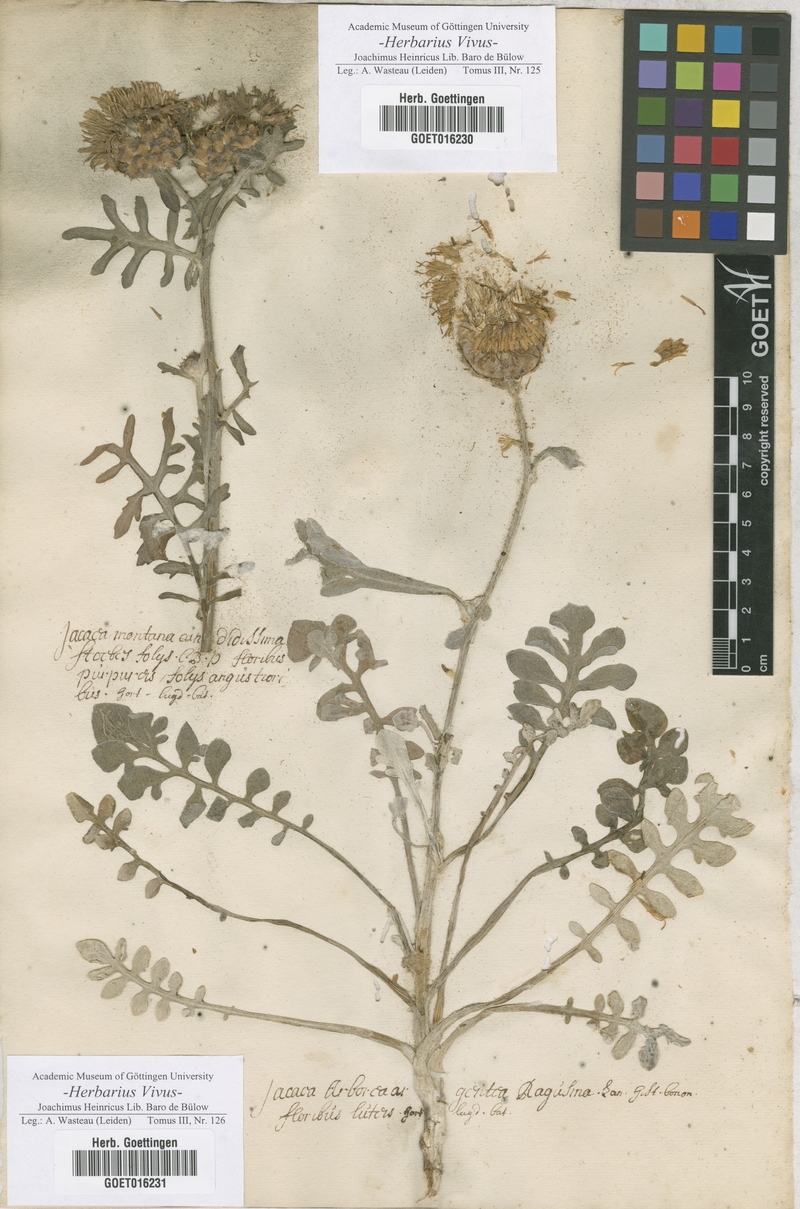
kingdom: Plantae
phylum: Tracheophyta
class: Magnoliopsida
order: Asterales
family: Asteraceae
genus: Centaurea
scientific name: Centaurea cineraria
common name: Dusty miller
